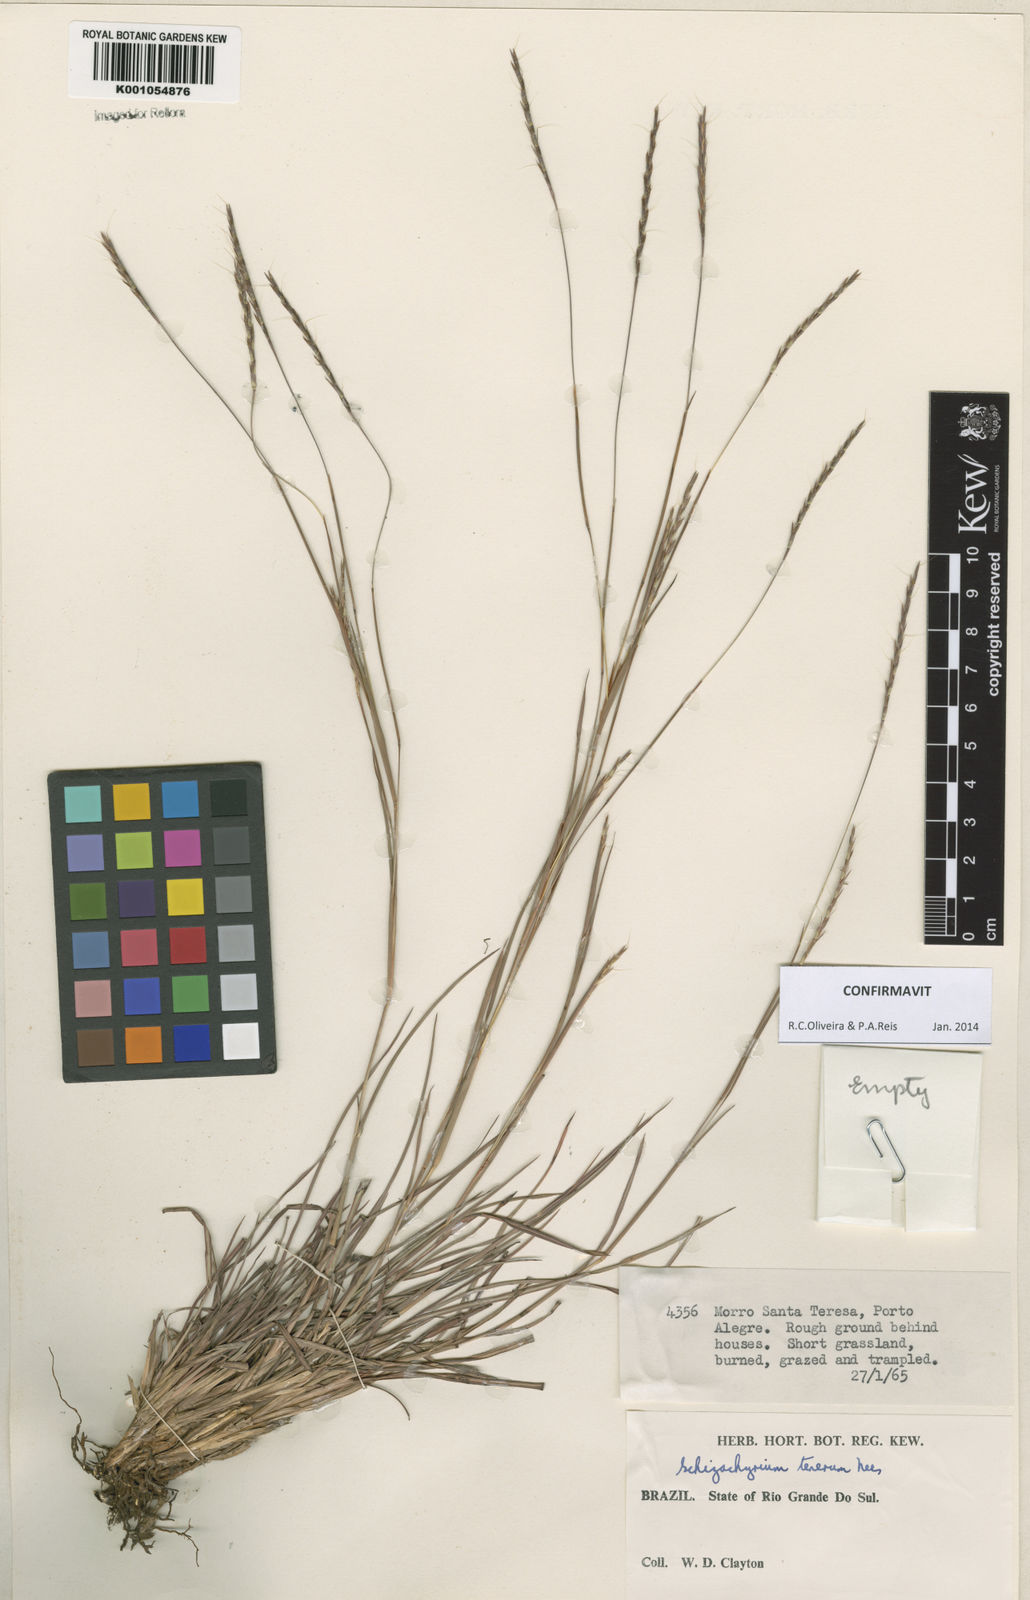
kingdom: Plantae
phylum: Tracheophyta
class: Liliopsida
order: Poales
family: Poaceae
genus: Andropogon
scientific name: Andropogon tener
